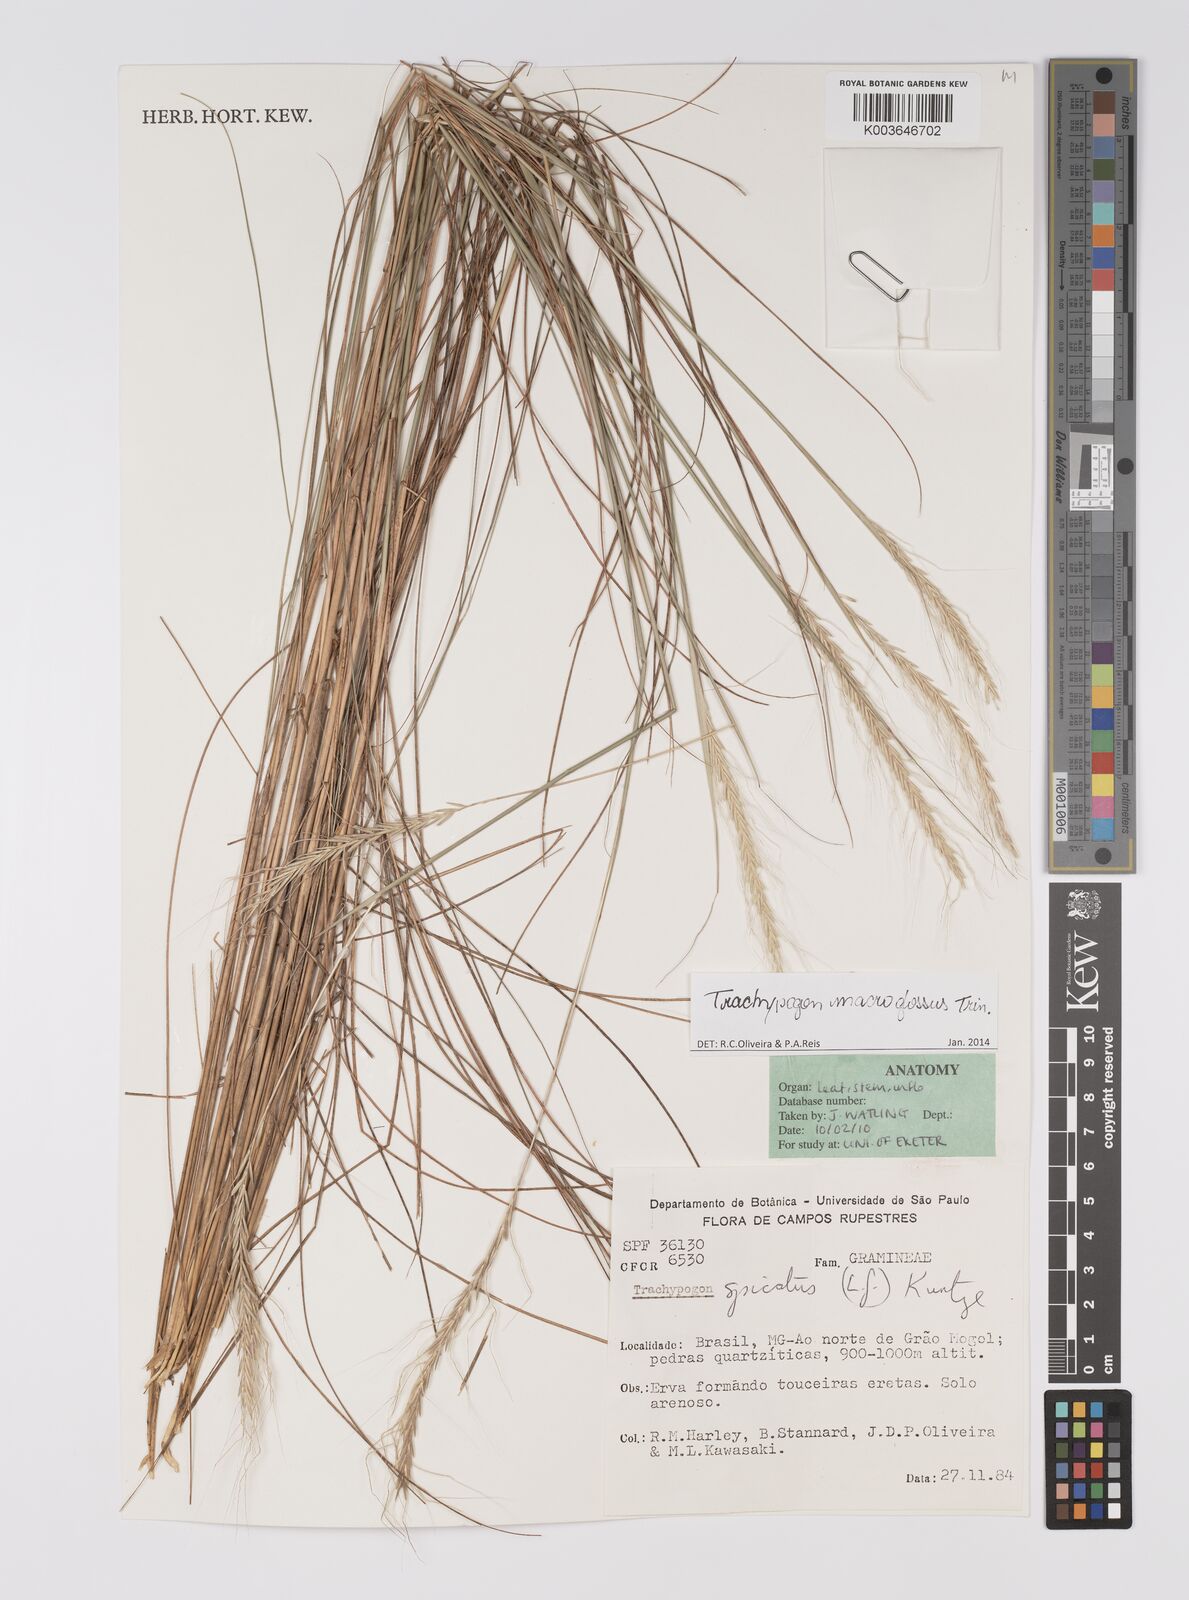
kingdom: Plantae
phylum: Tracheophyta
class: Liliopsida
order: Poales
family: Poaceae
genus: Trachypogon
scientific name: Trachypogon macroglossus
